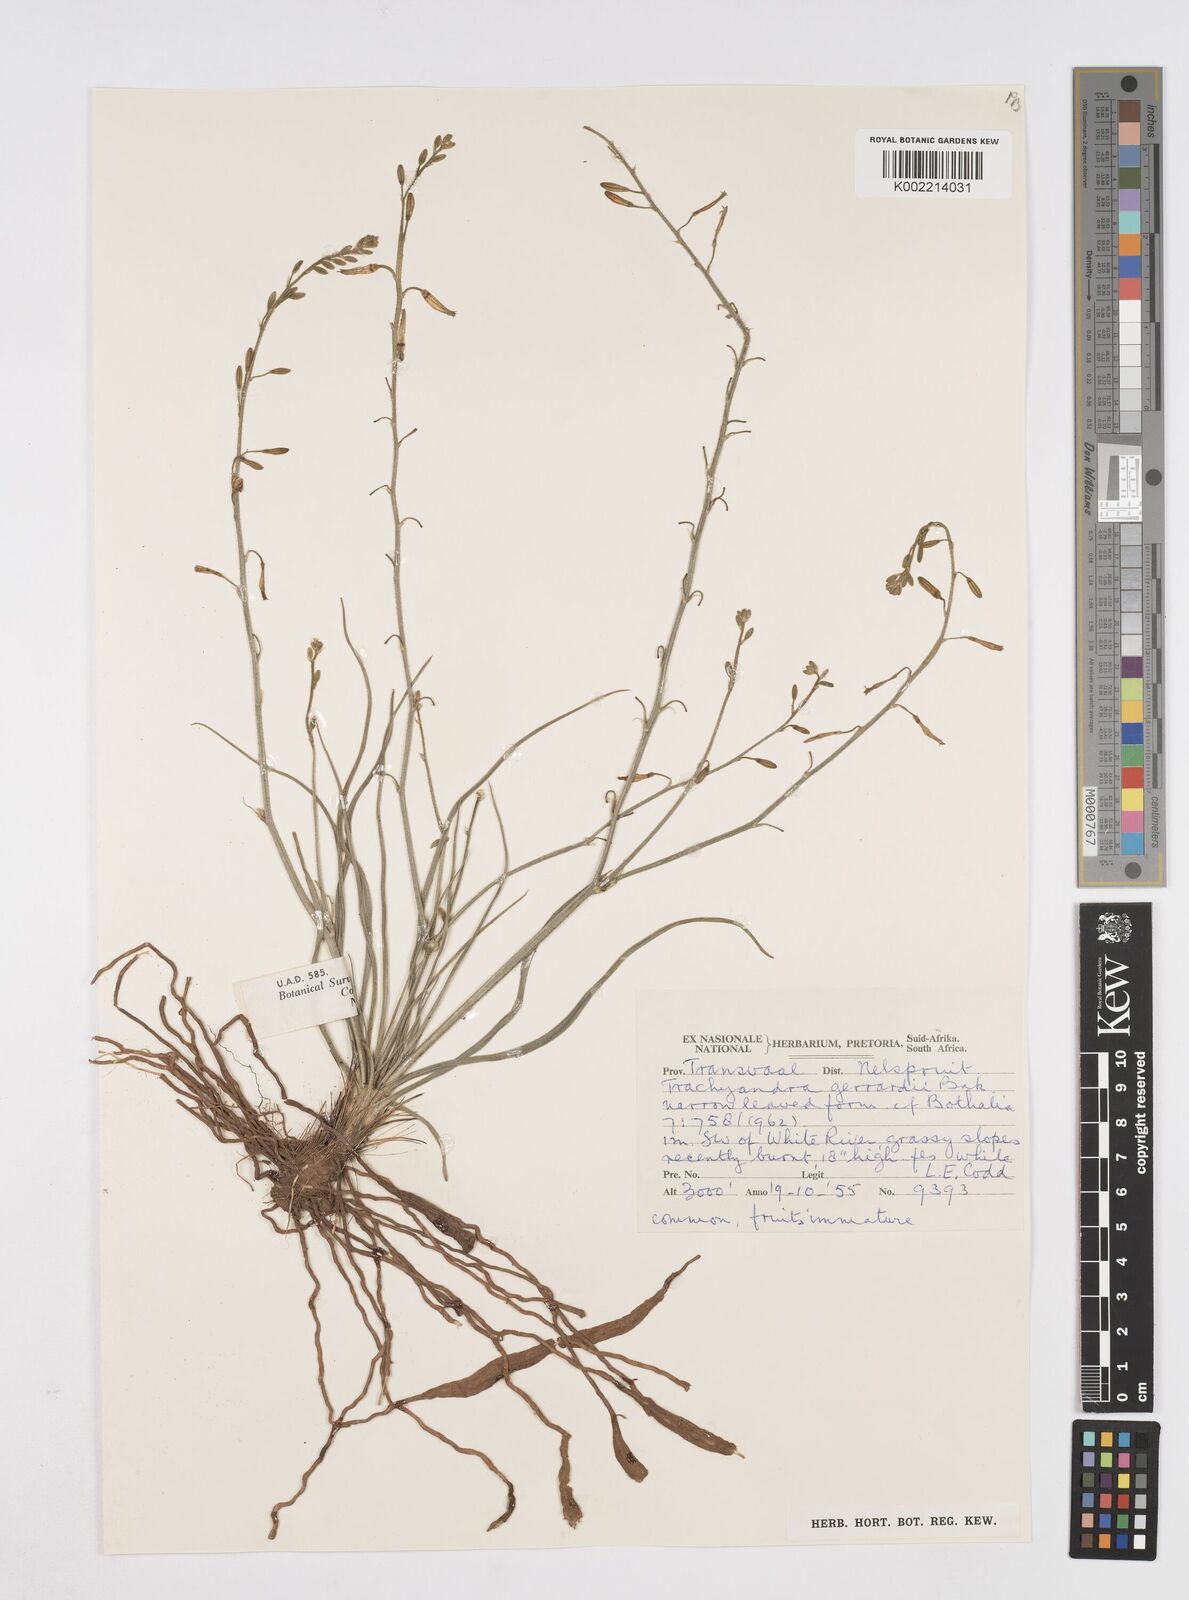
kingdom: Plantae
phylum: Tracheophyta
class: Liliopsida
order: Asparagales
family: Asphodelaceae
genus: Trachyandra
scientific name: Trachyandra gerrardii
